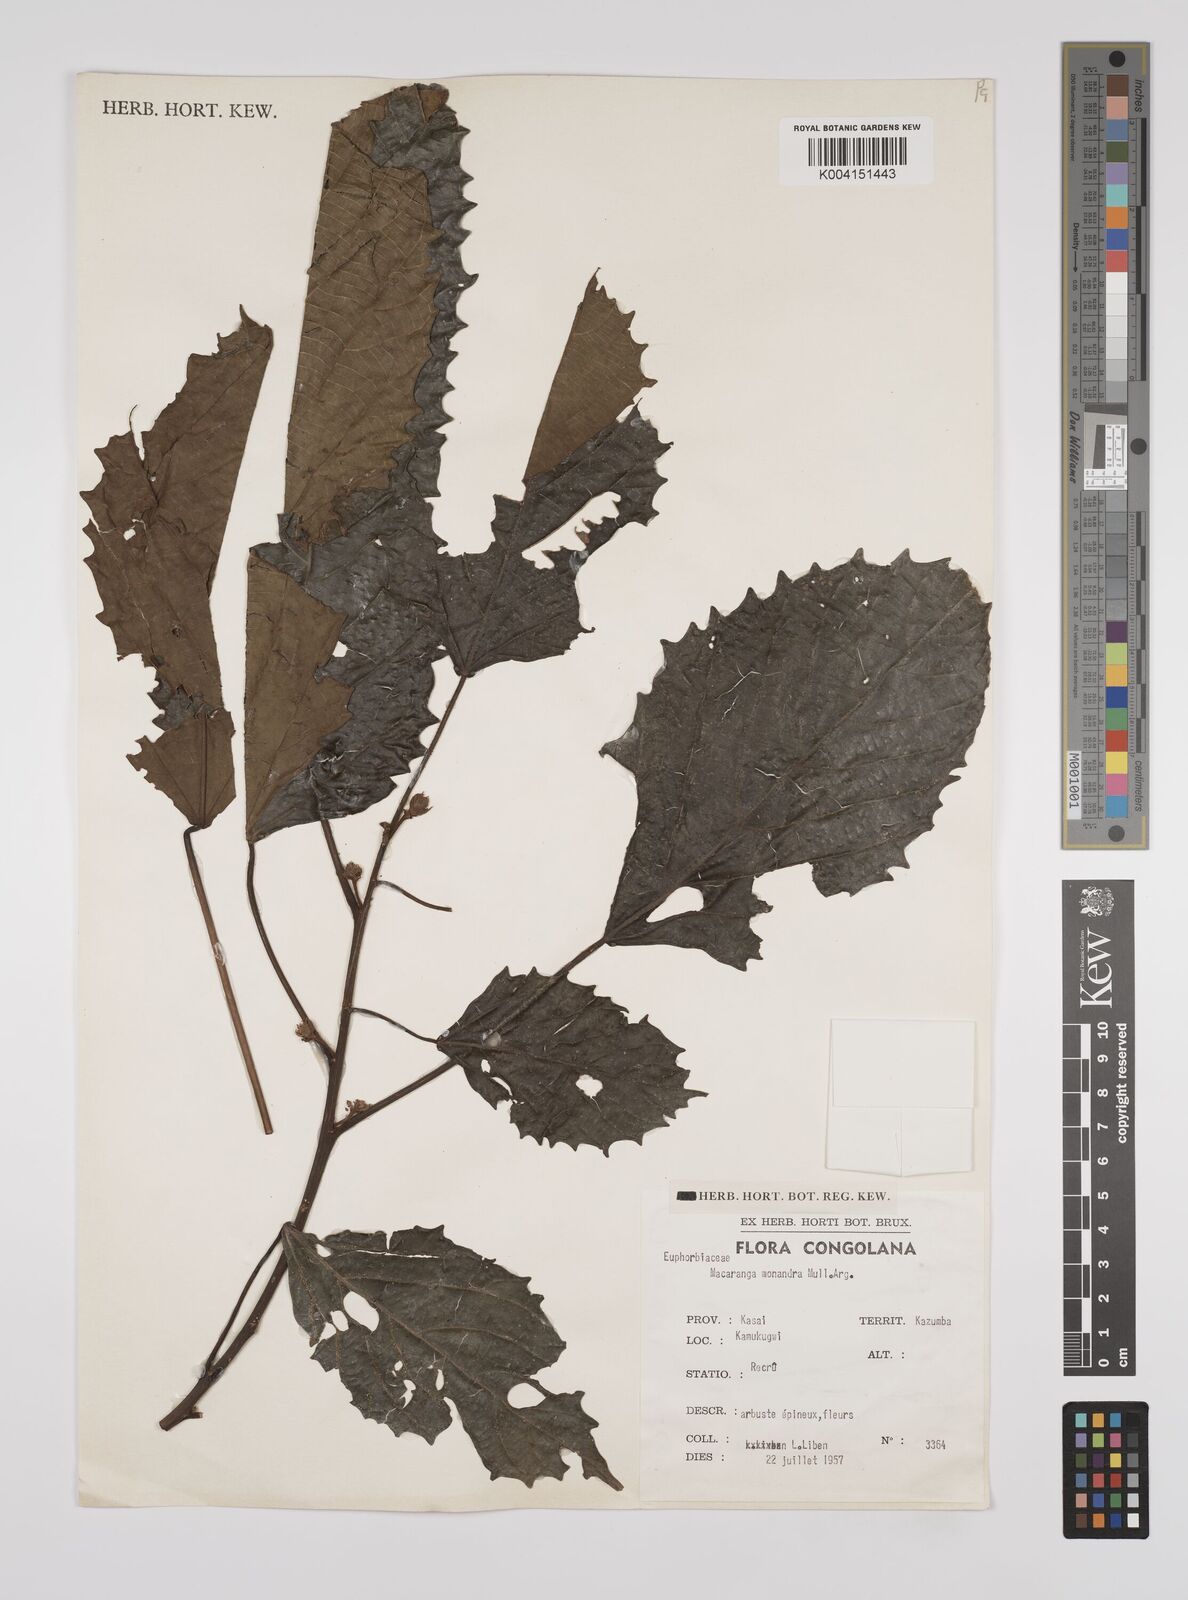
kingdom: Plantae
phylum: Tracheophyta
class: Magnoliopsida
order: Malpighiales
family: Euphorbiaceae
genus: Macaranga
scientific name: Macaranga monandra
